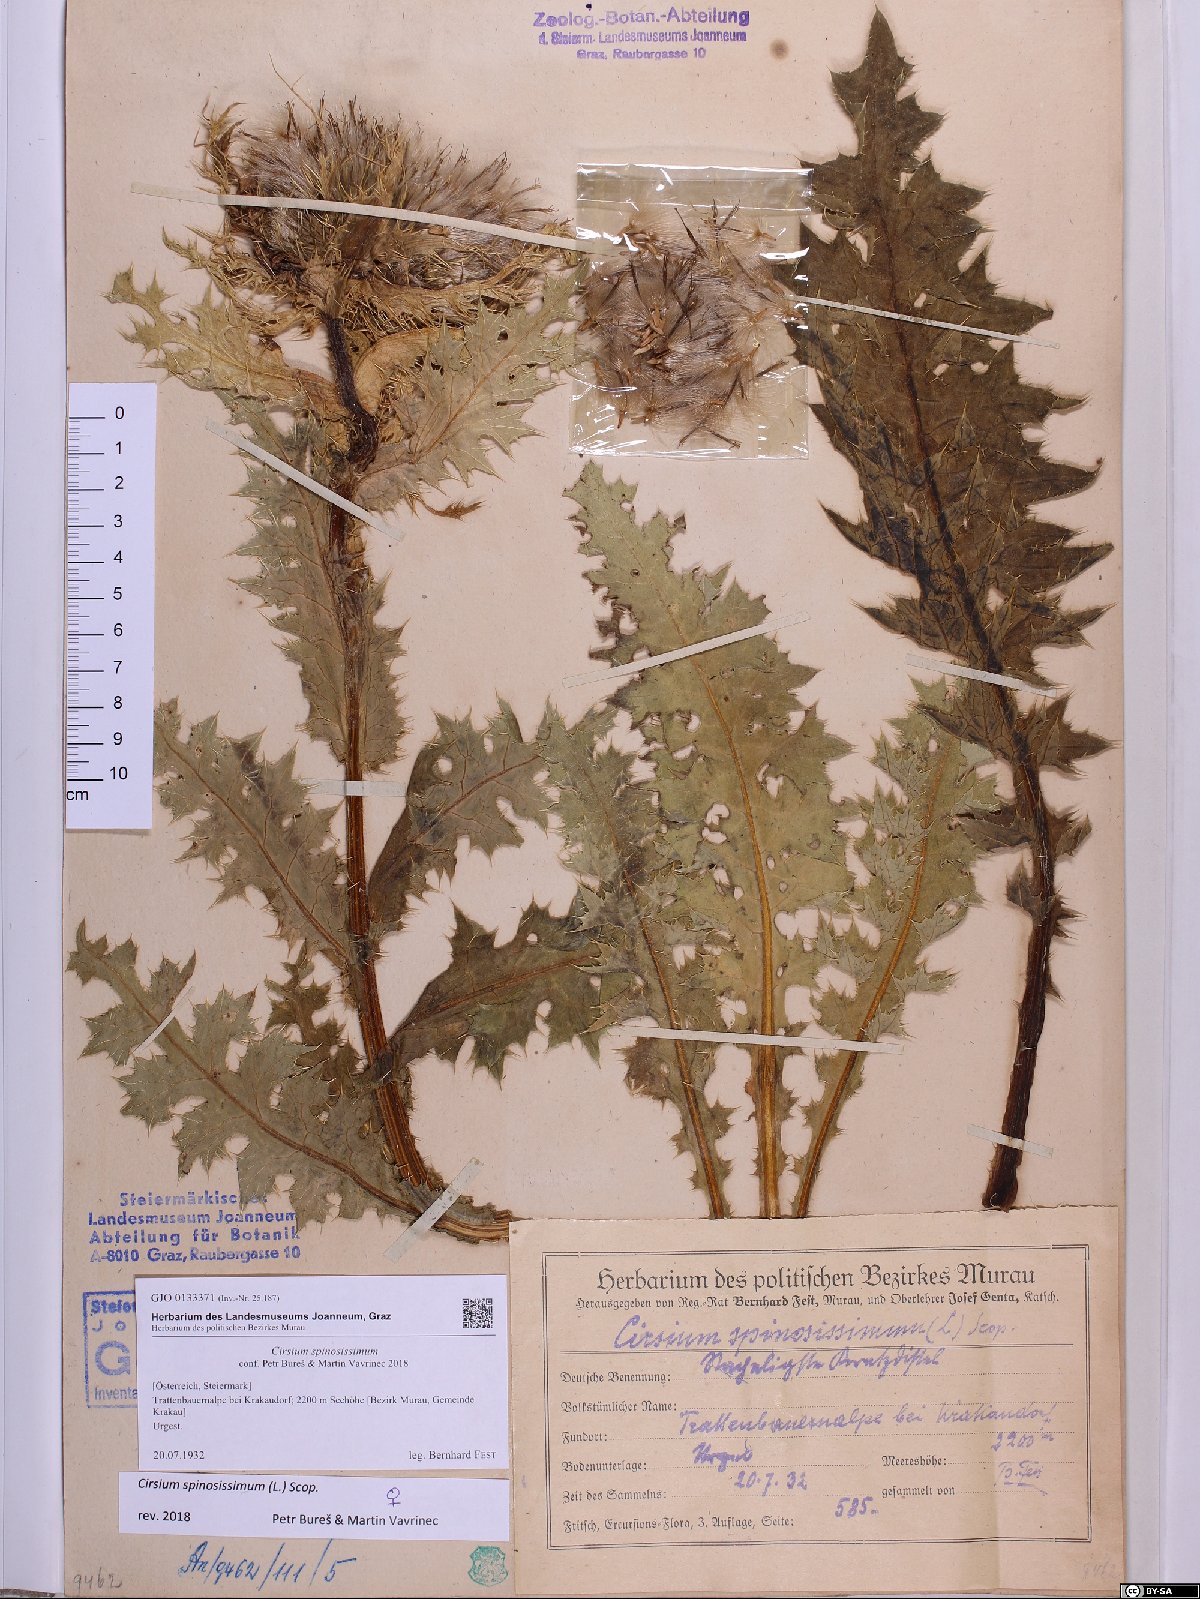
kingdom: Plantae
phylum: Tracheophyta
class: Magnoliopsida
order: Asterales
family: Asteraceae
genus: Cirsium
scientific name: Cirsium spinosissimum
